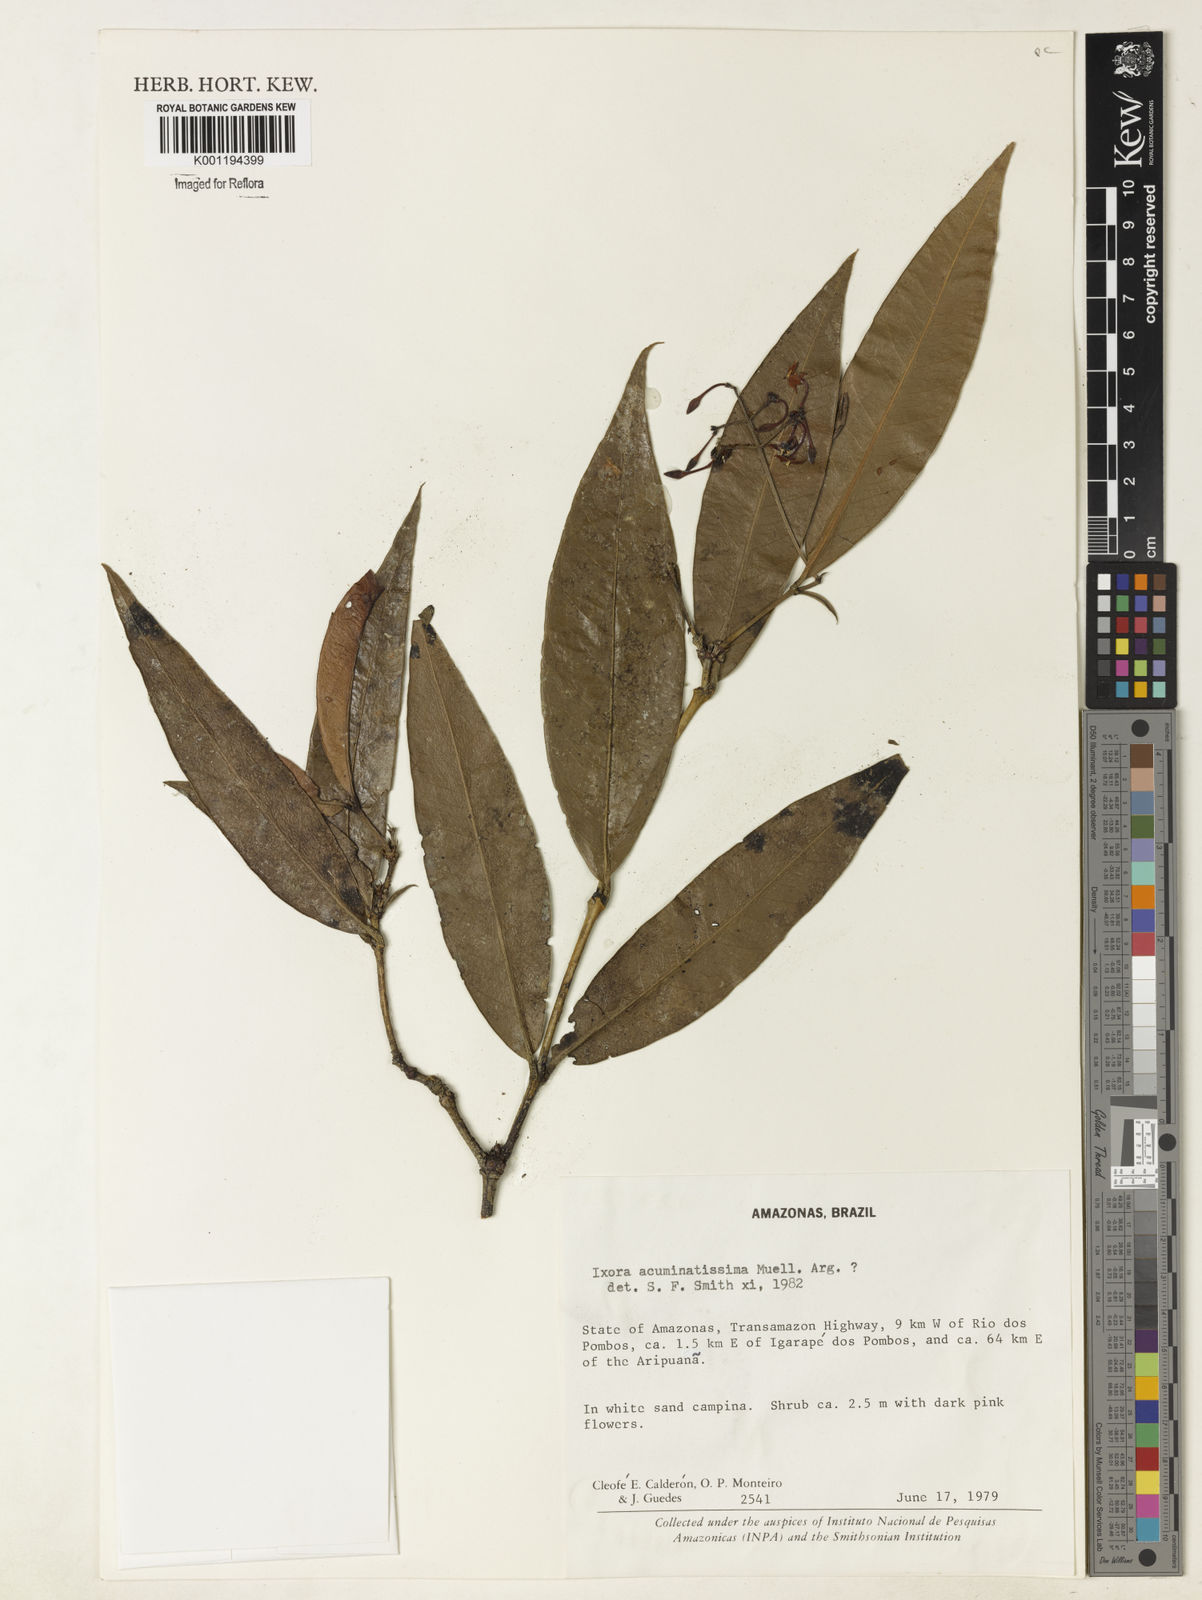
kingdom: Plantae
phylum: Tracheophyta
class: Magnoliopsida
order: Gentianales
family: Rubiaceae
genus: Ixora
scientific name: Ixora
